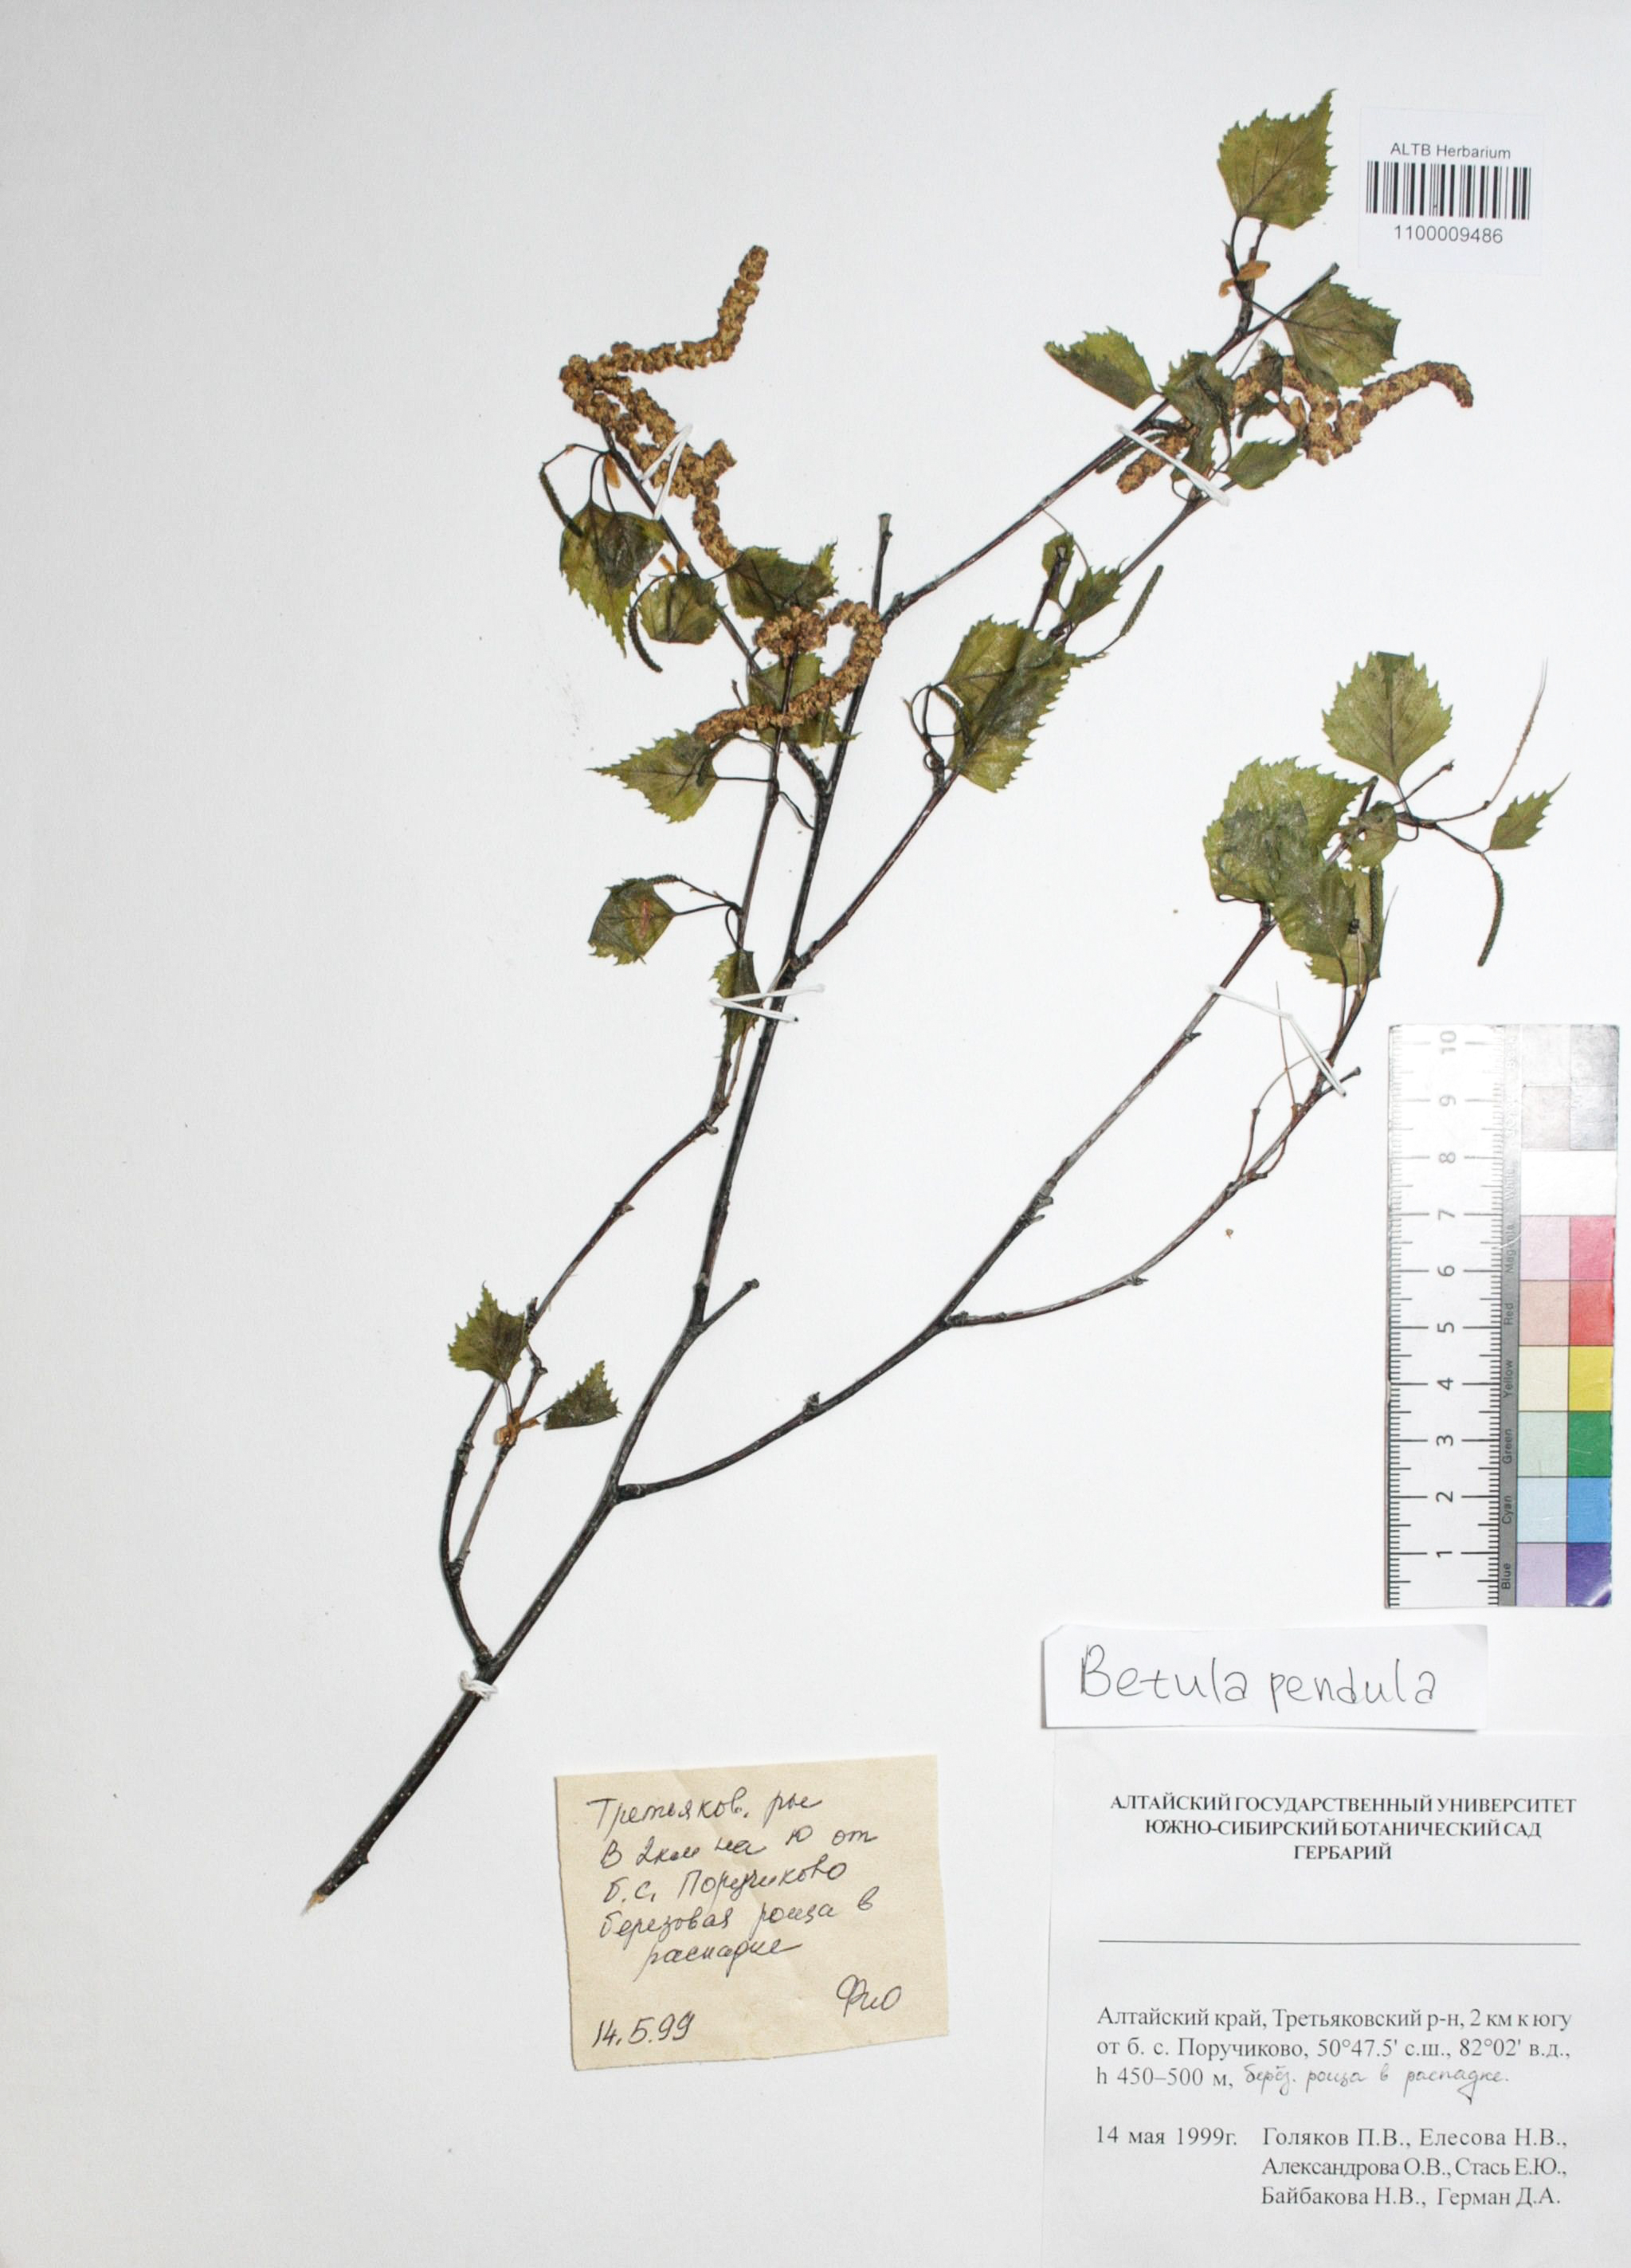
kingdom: Plantae
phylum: Tracheophyta
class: Magnoliopsida
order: Fagales
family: Betulaceae
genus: Betula
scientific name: Betula pendula
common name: Silver birch
